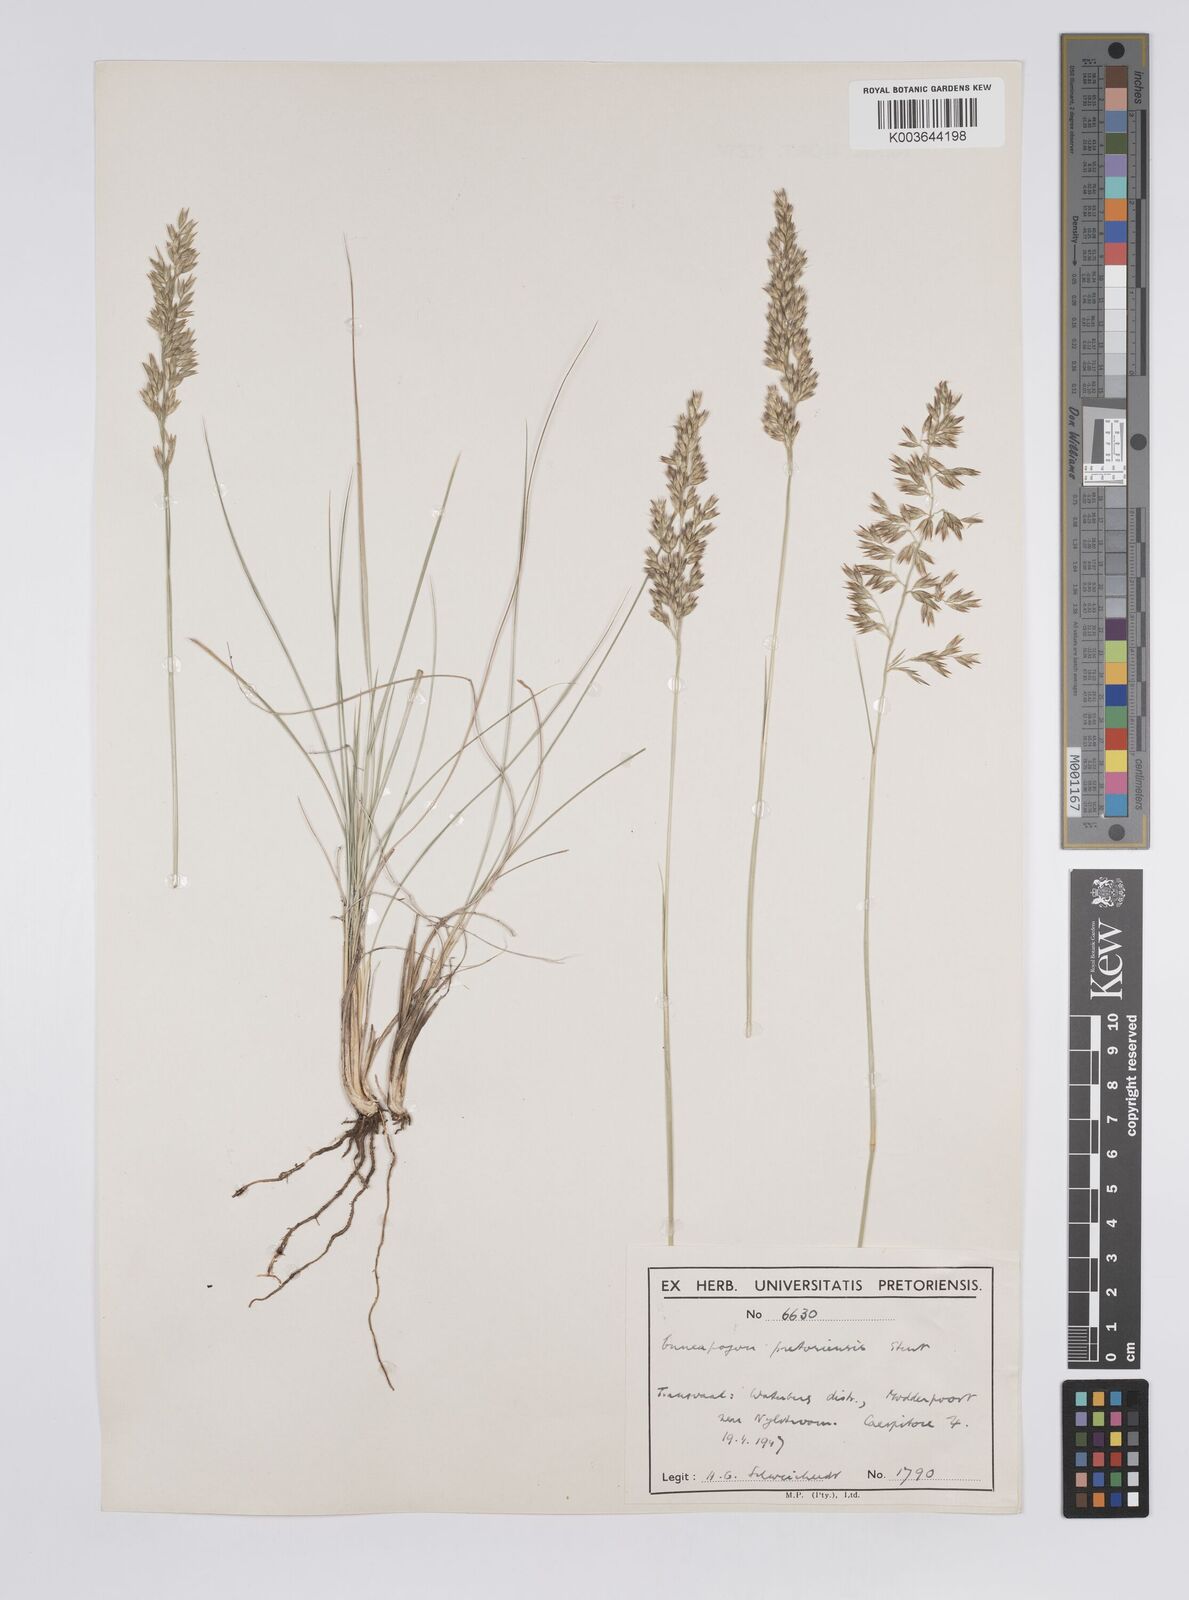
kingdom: Plantae
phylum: Tracheophyta
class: Liliopsida
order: Poales
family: Poaceae
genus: Enneapogon
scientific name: Enneapogon pretoriensis
